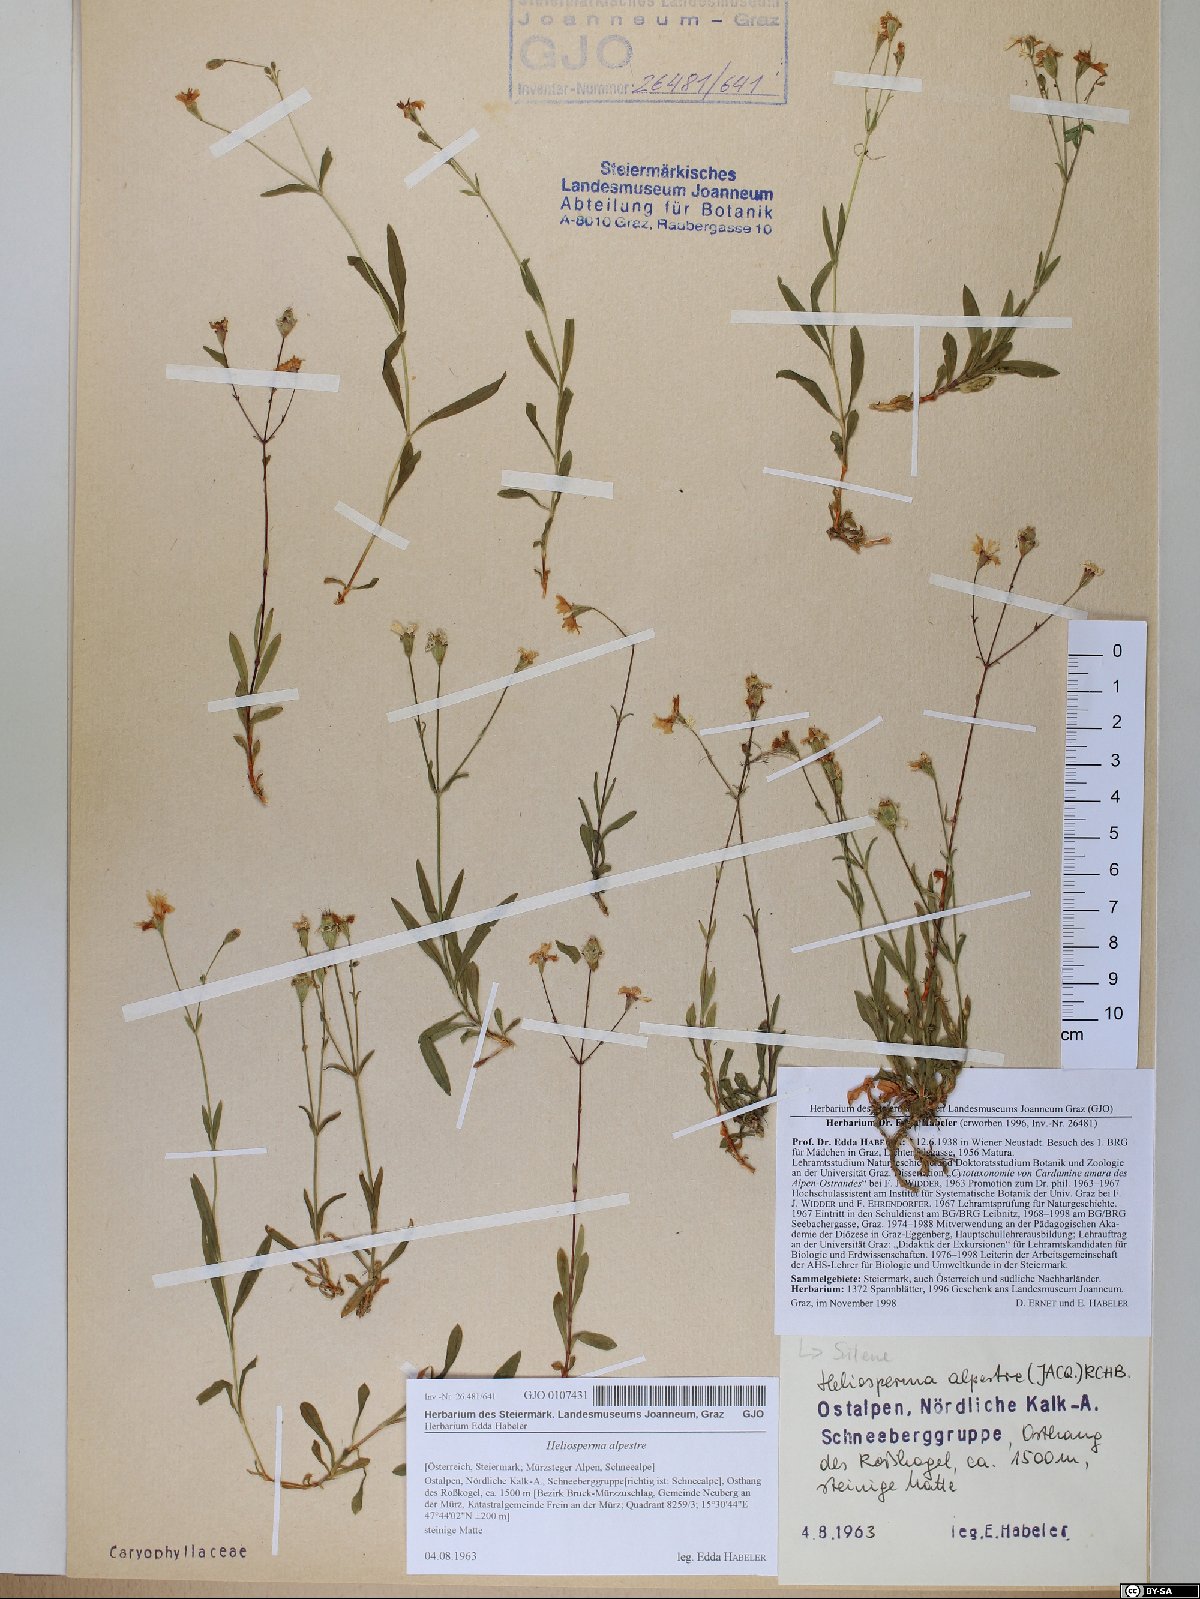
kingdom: Plantae
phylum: Tracheophyta
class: Magnoliopsida
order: Caryophyllales
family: Caryophyllaceae
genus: Heliosperma
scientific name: Heliosperma alpestre
